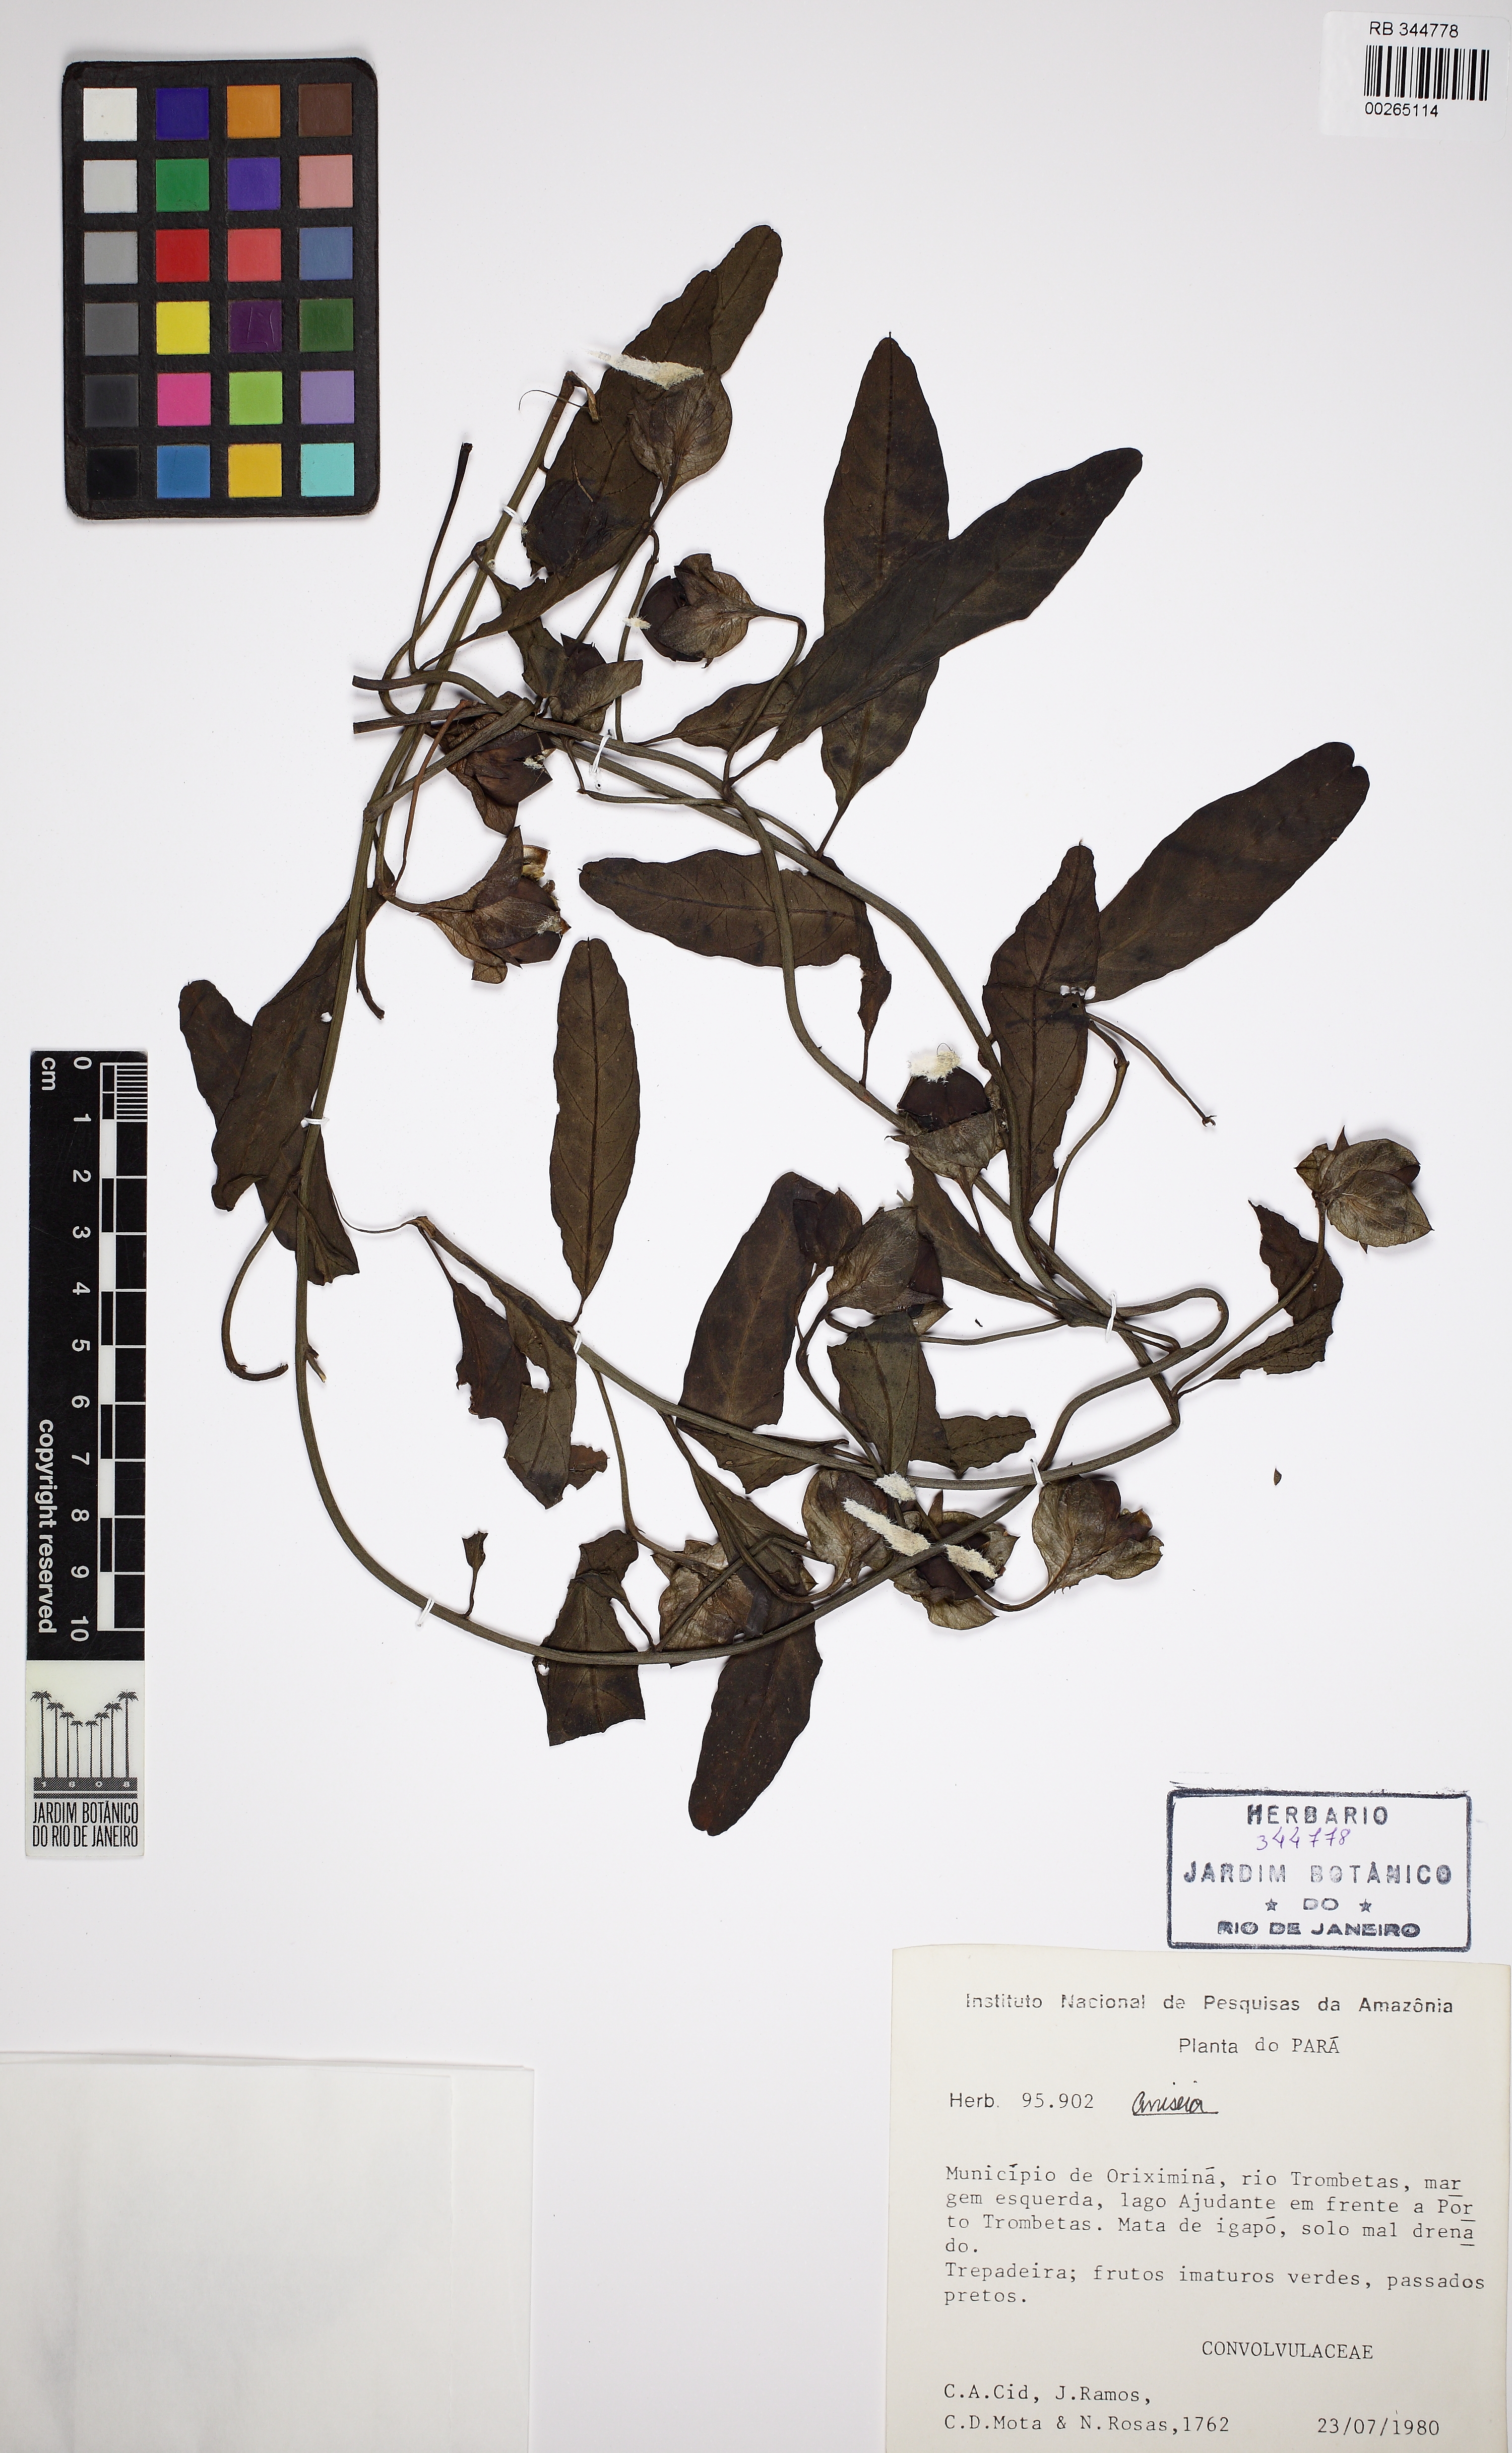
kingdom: Plantae
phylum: Tracheophyta
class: Magnoliopsida
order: Solanales
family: Convolvulaceae
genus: Aniseia
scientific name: Aniseia martinicensis
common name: Kulayadambu
